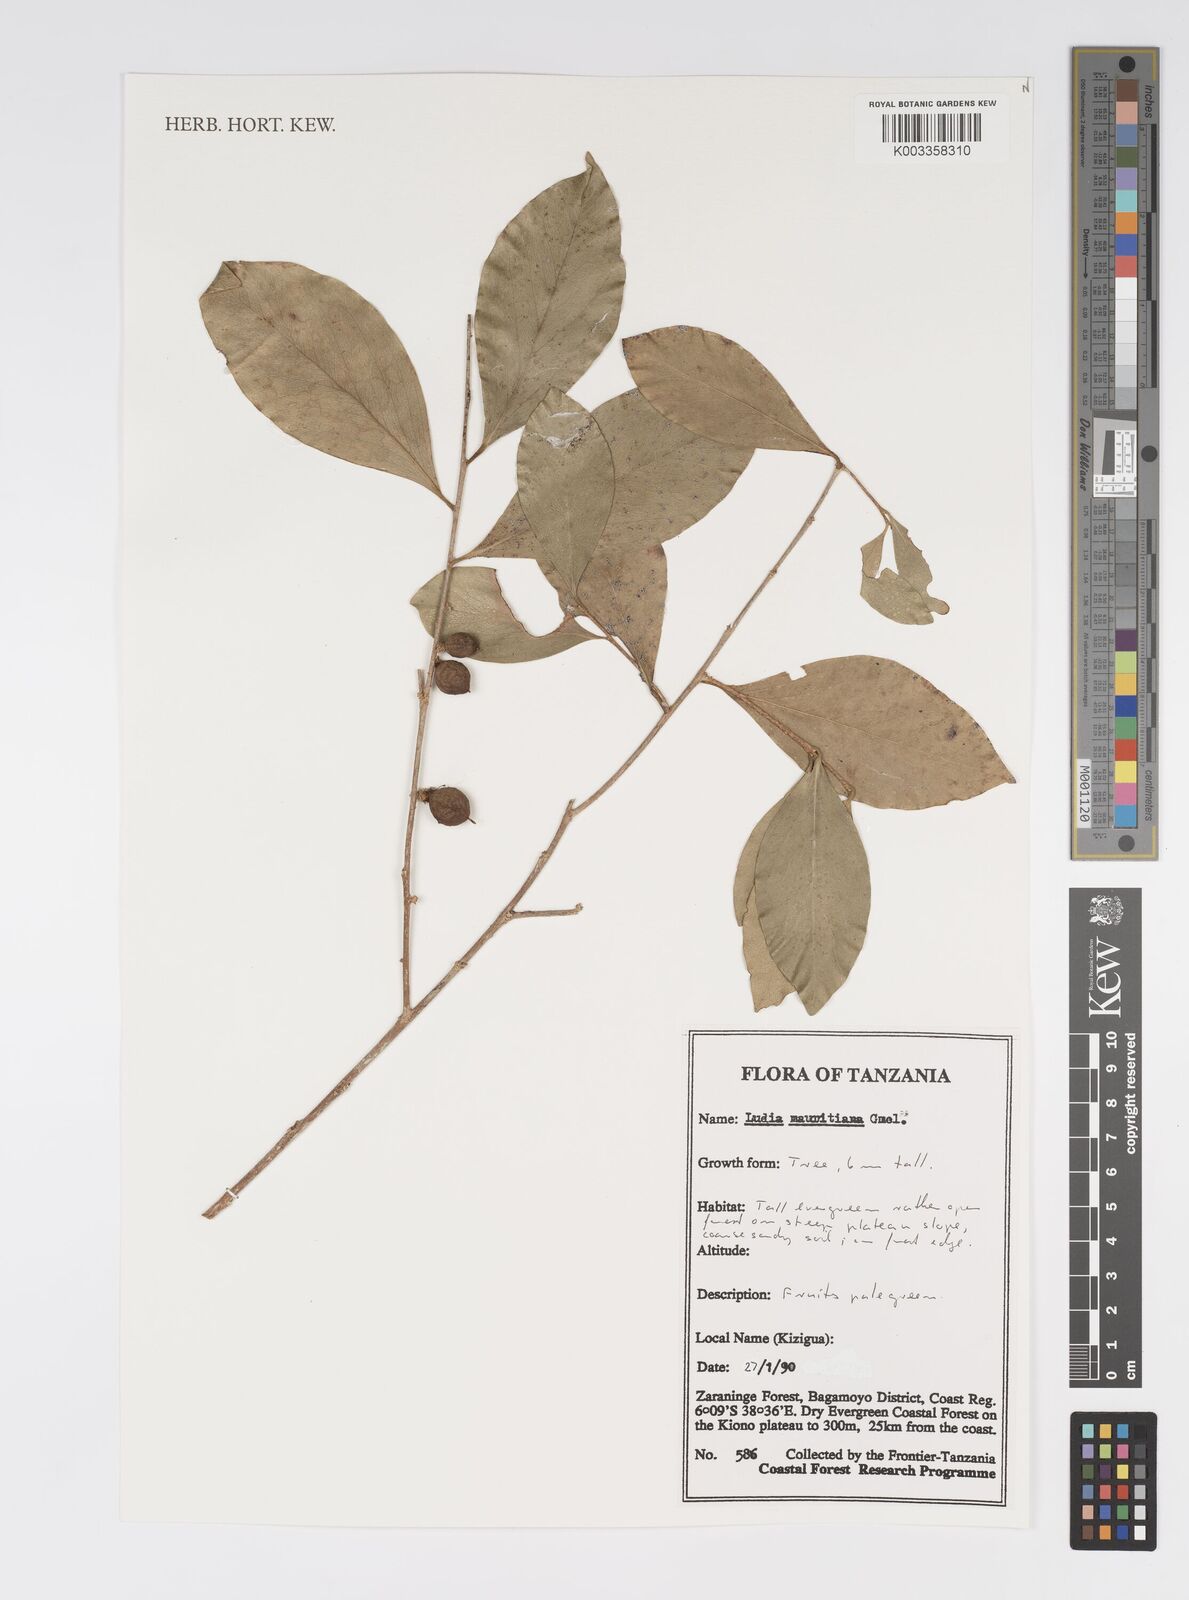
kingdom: Plantae
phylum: Tracheophyta
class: Magnoliopsida
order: Malpighiales
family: Salicaceae
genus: Ludia
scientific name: Ludia mauritiana
